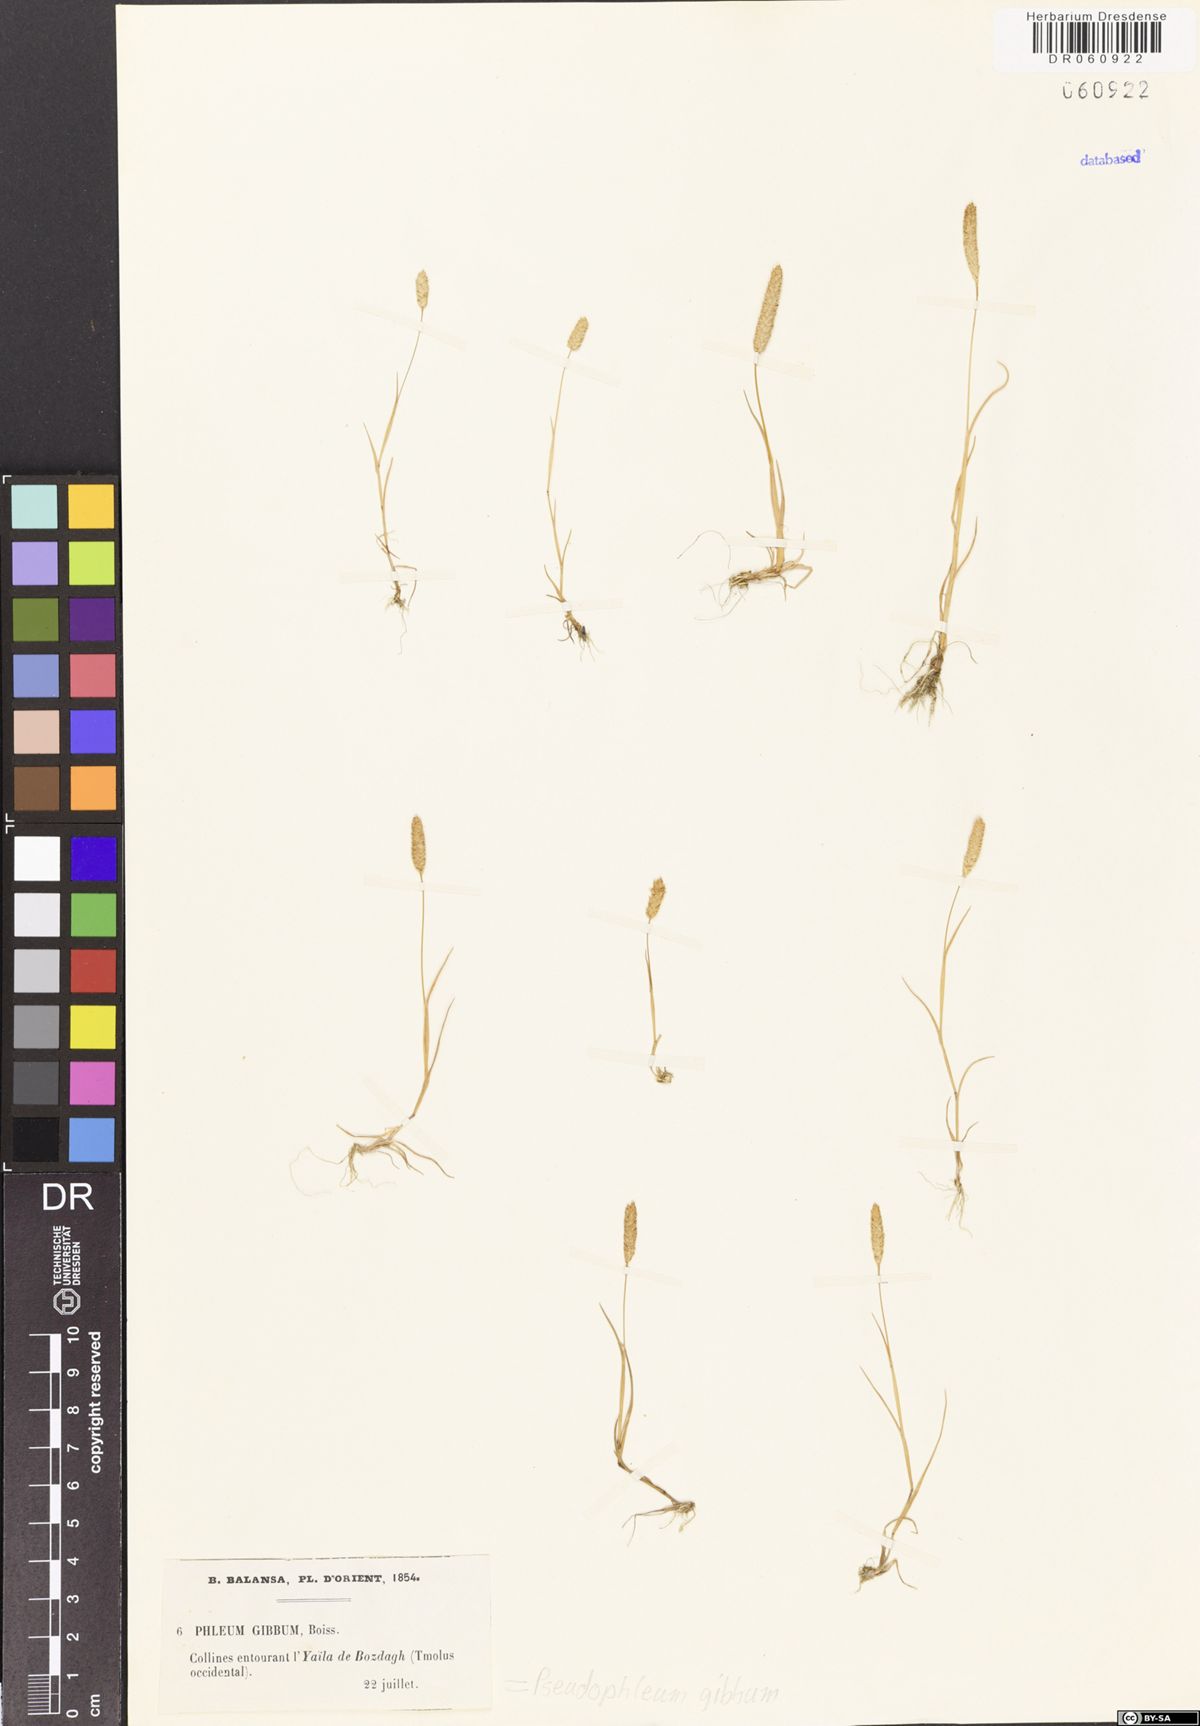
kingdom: Plantae
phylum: Tracheophyta
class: Liliopsida
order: Poales
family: Poaceae
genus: Pseudophleum
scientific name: Pseudophleum gibbum
